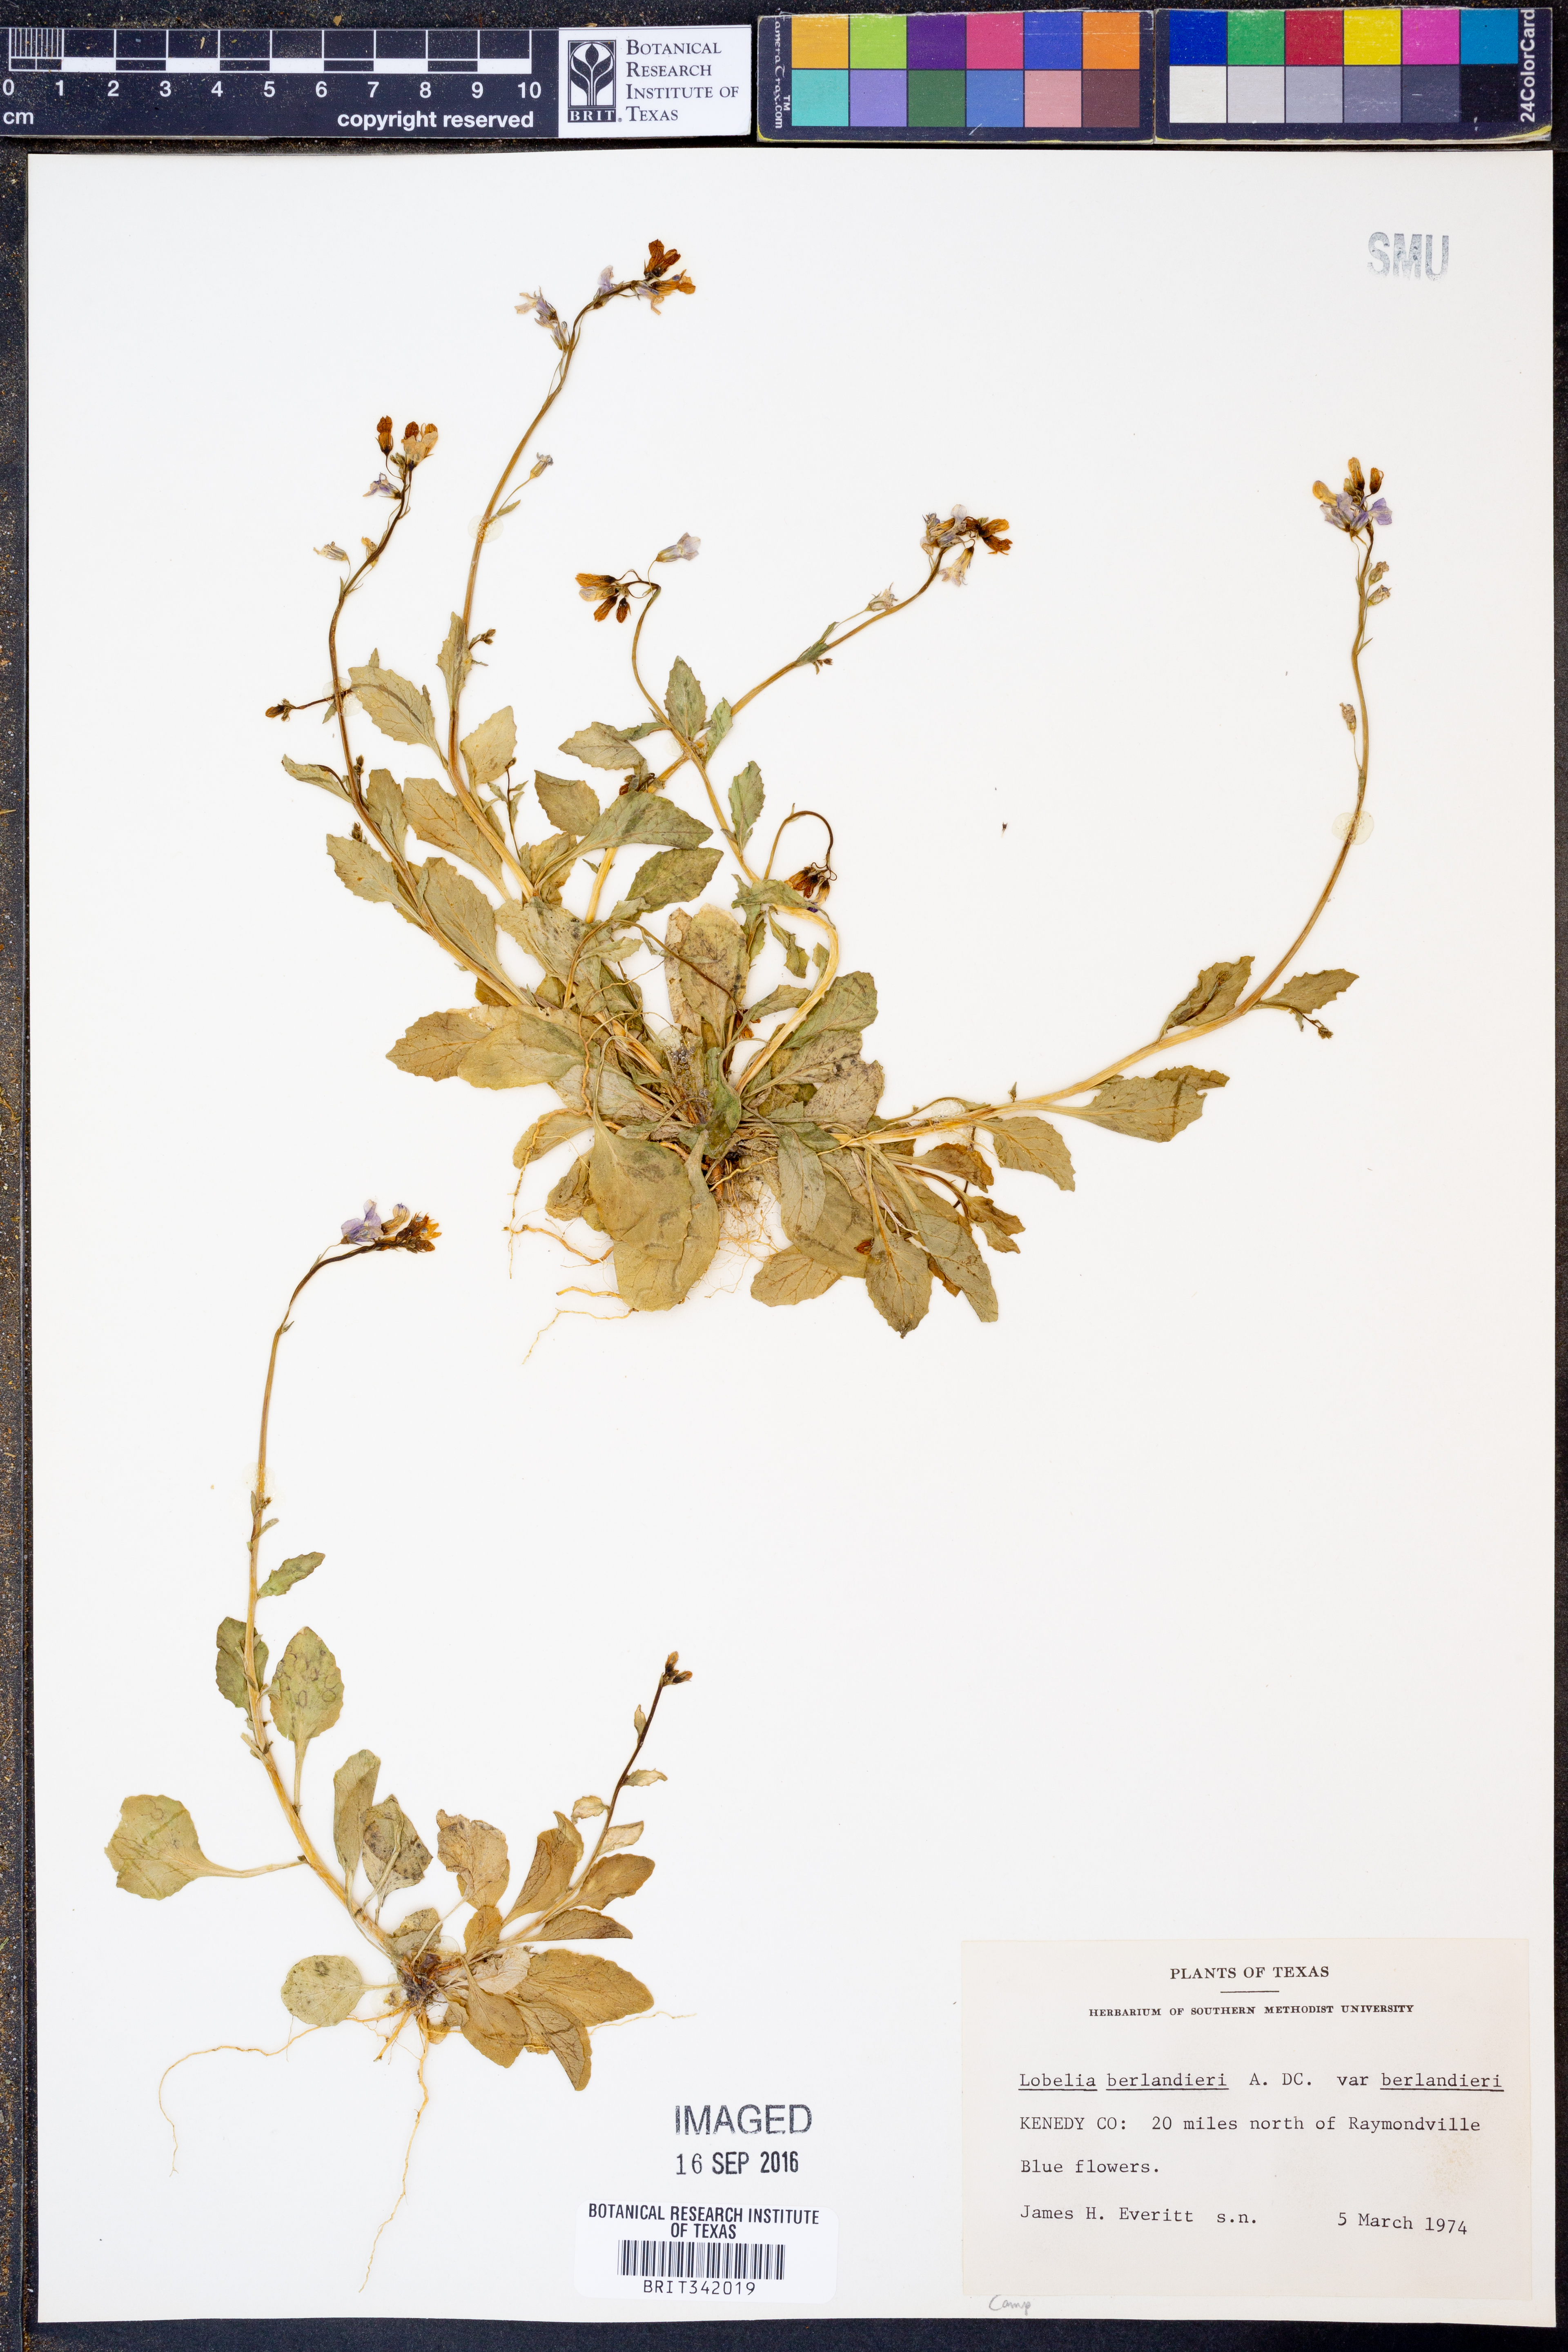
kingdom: Plantae
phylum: Tracheophyta
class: Magnoliopsida
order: Asterales
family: Campanulaceae
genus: Lobelia
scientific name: Lobelia berlandieri
